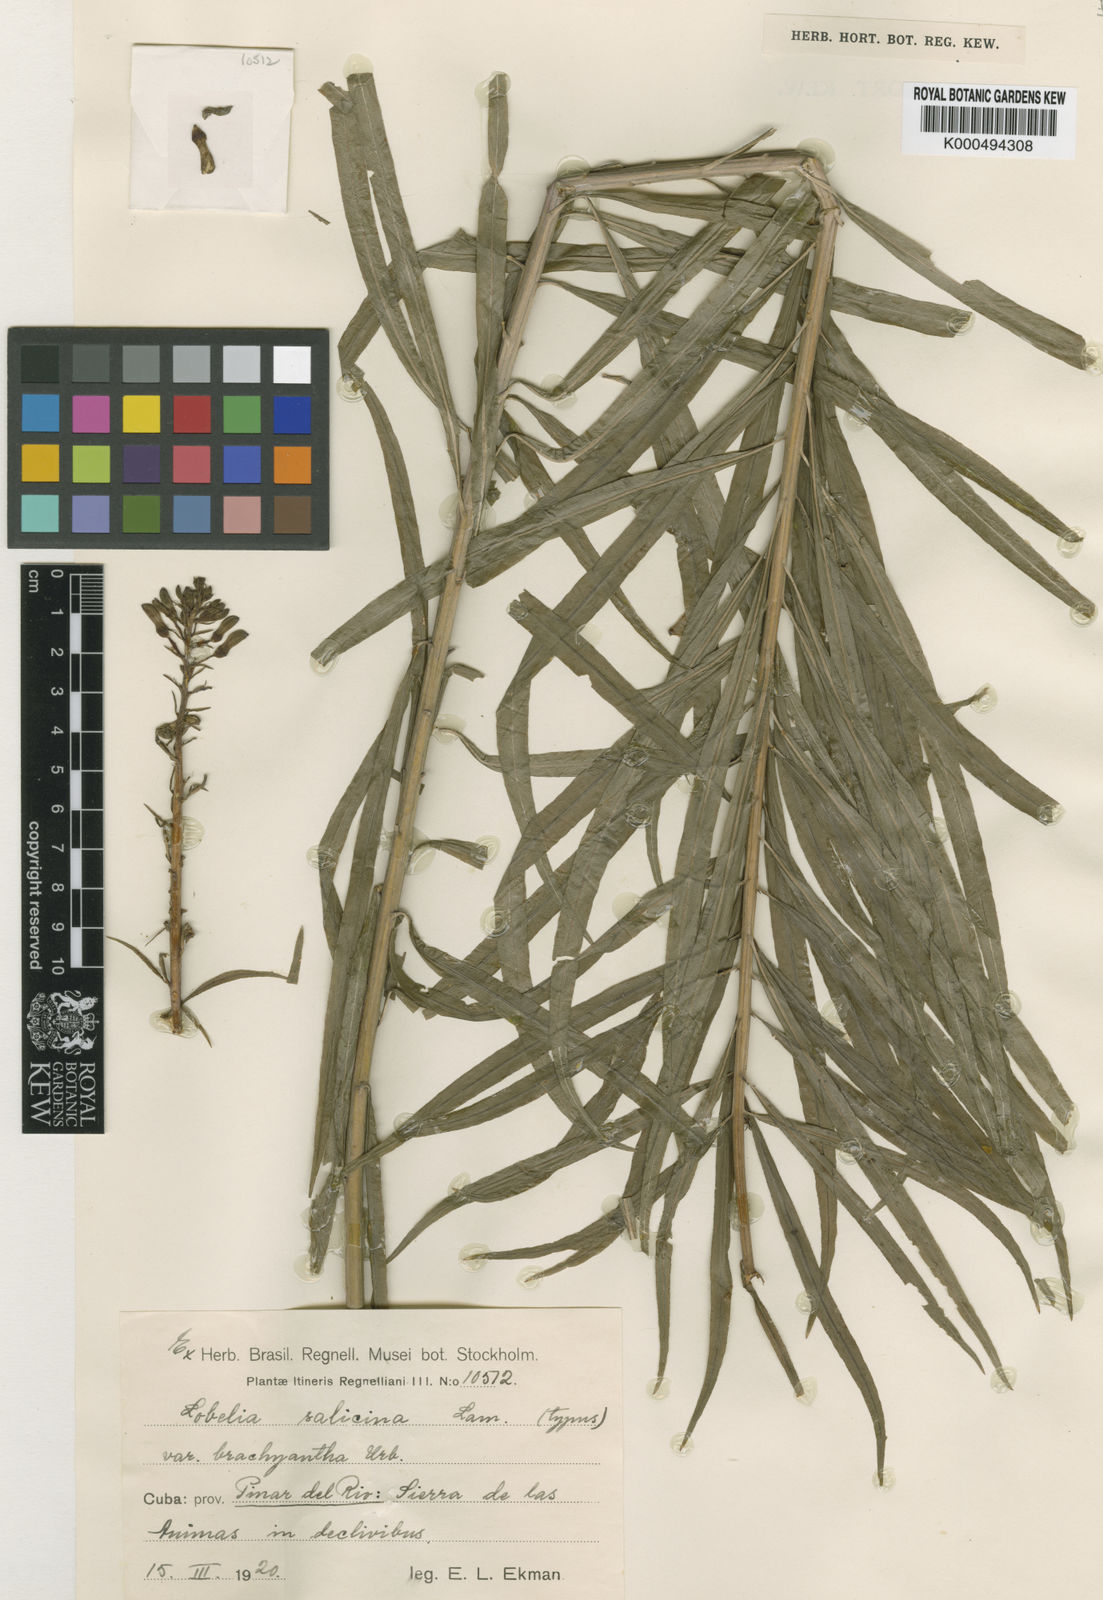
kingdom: Plantae
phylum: Tracheophyta
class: Magnoliopsida
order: Asterales
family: Campanulaceae
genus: Lobelia
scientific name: Lobelia salicina
